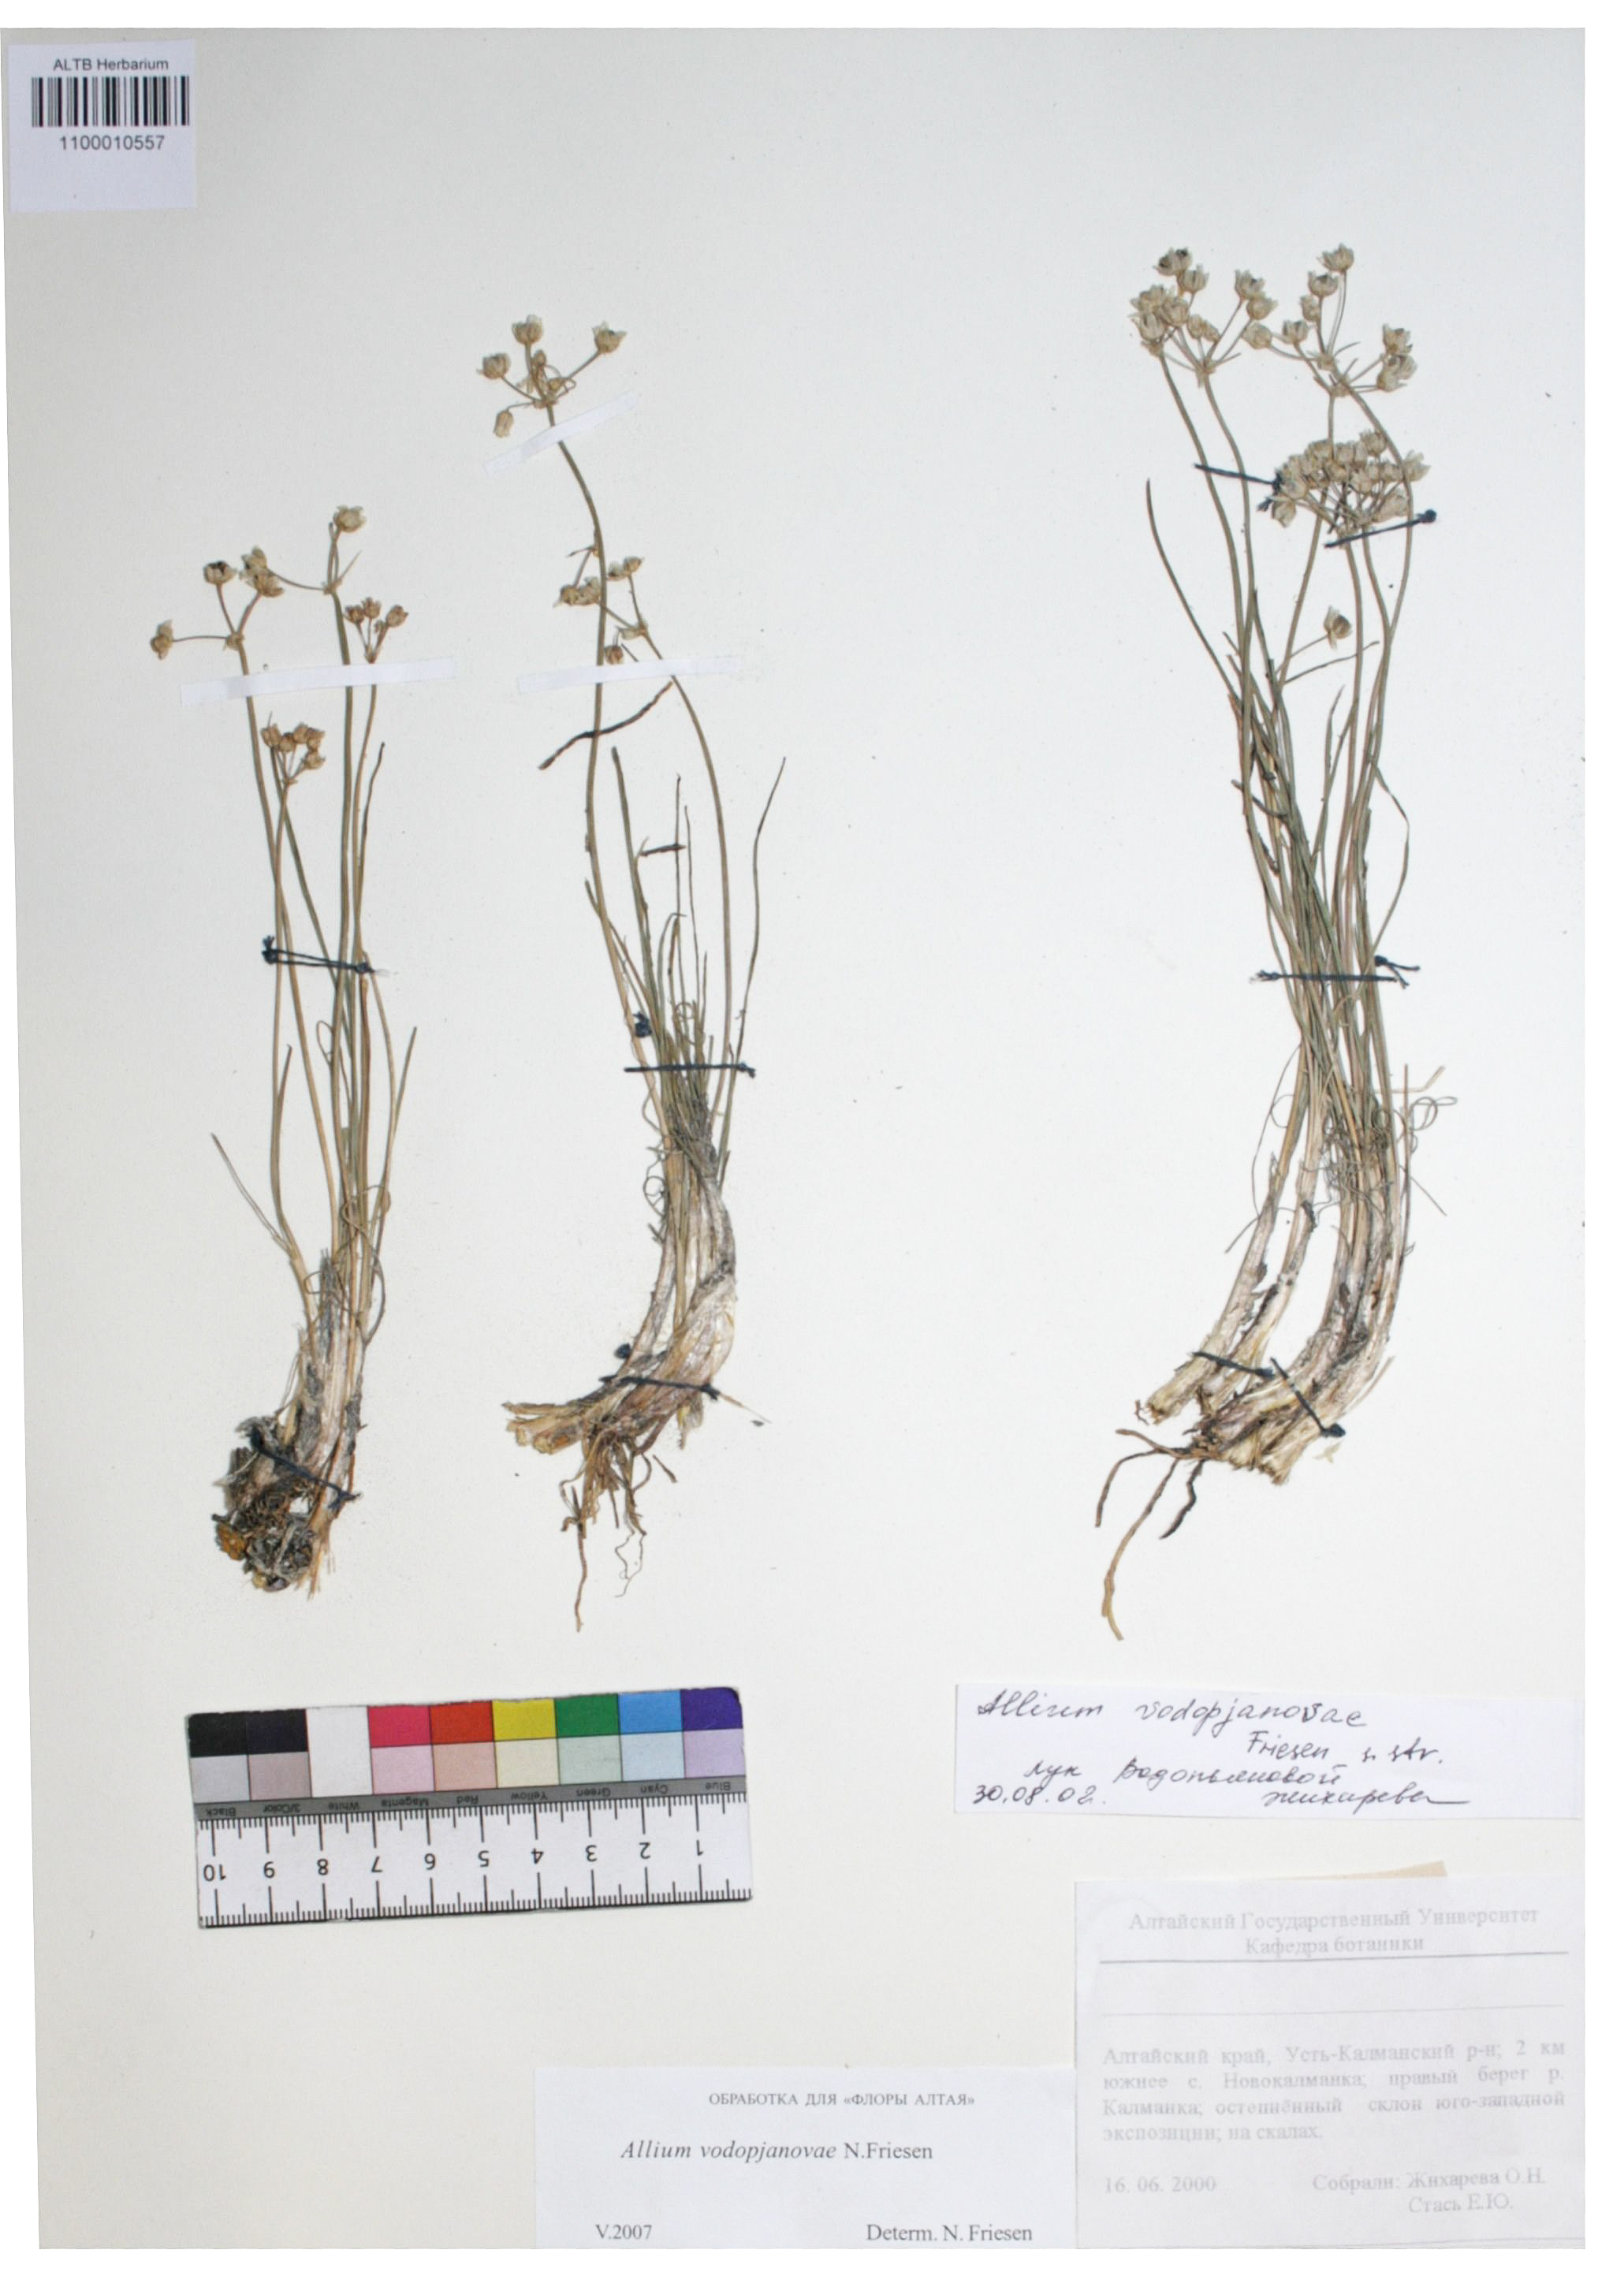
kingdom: Plantae
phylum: Tracheophyta
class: Liliopsida
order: Asparagales
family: Amaryllidaceae
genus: Allium
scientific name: Allium vodopjanovae
